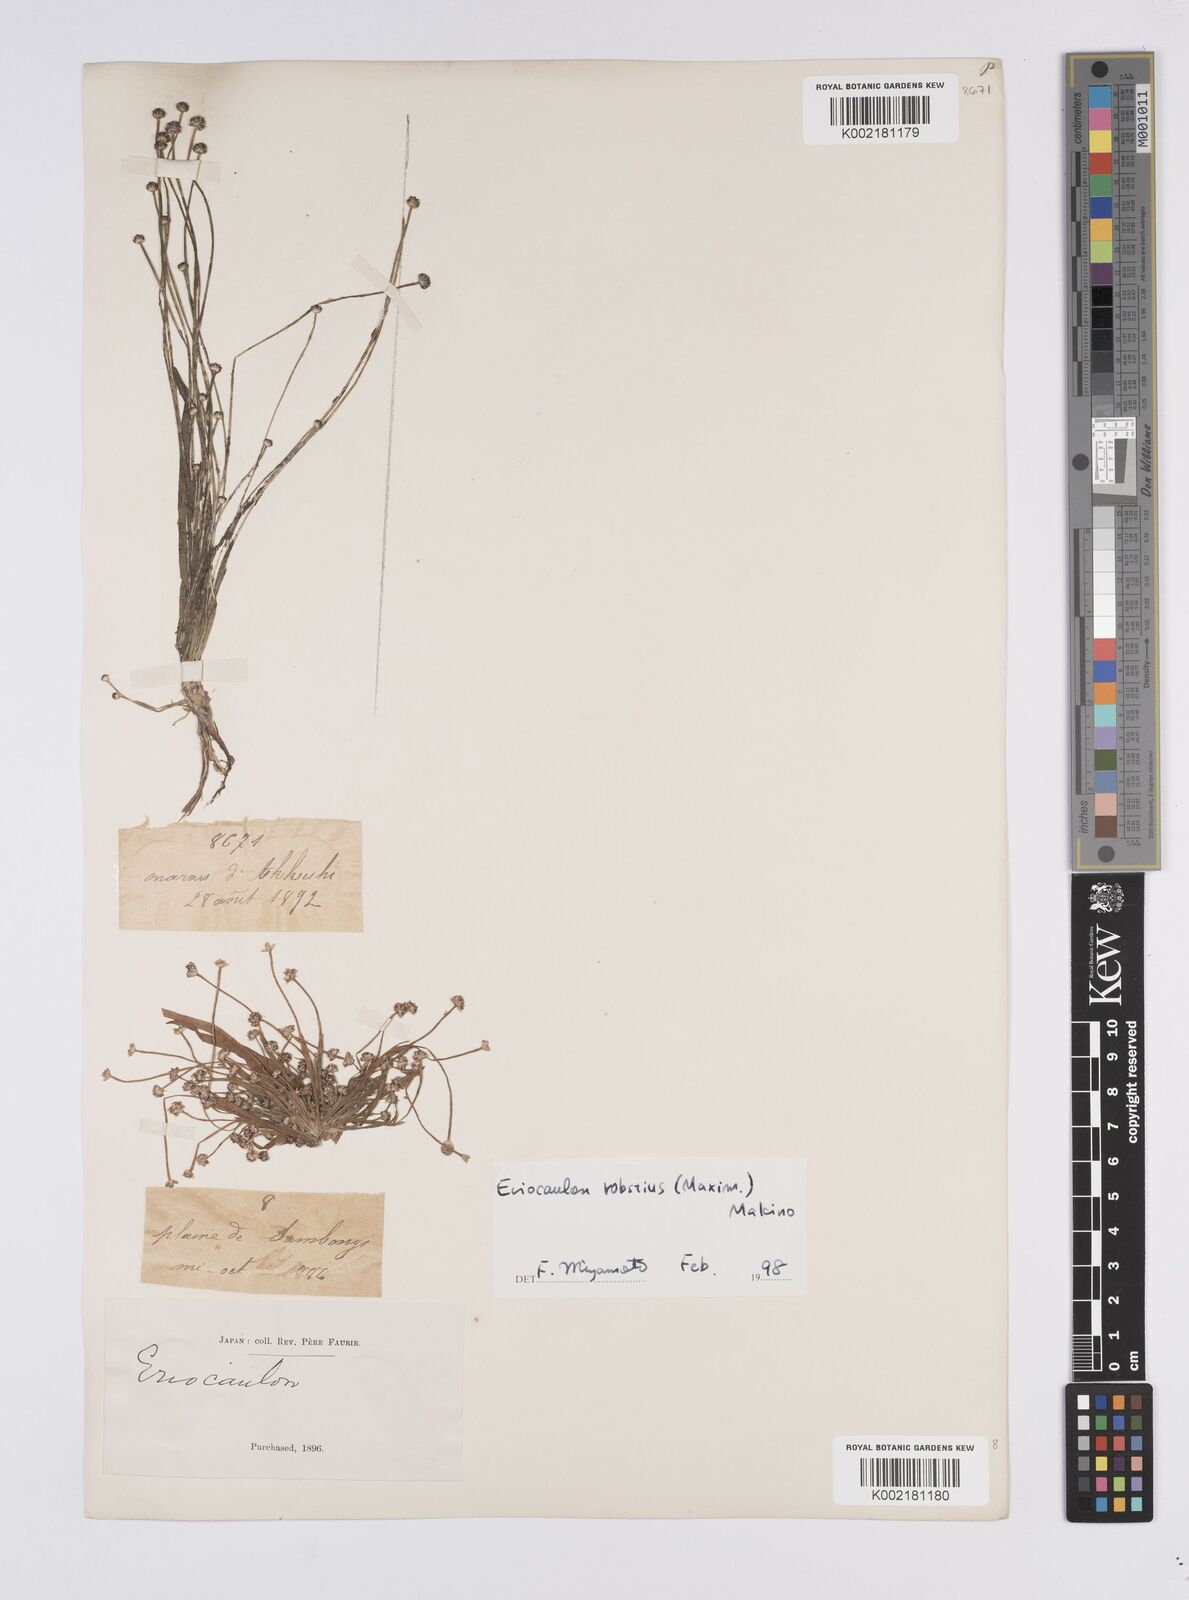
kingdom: Plantae
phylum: Tracheophyta
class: Liliopsida
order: Poales
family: Eriocaulaceae
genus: Eriocaulon
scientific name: Eriocaulon alpestre
